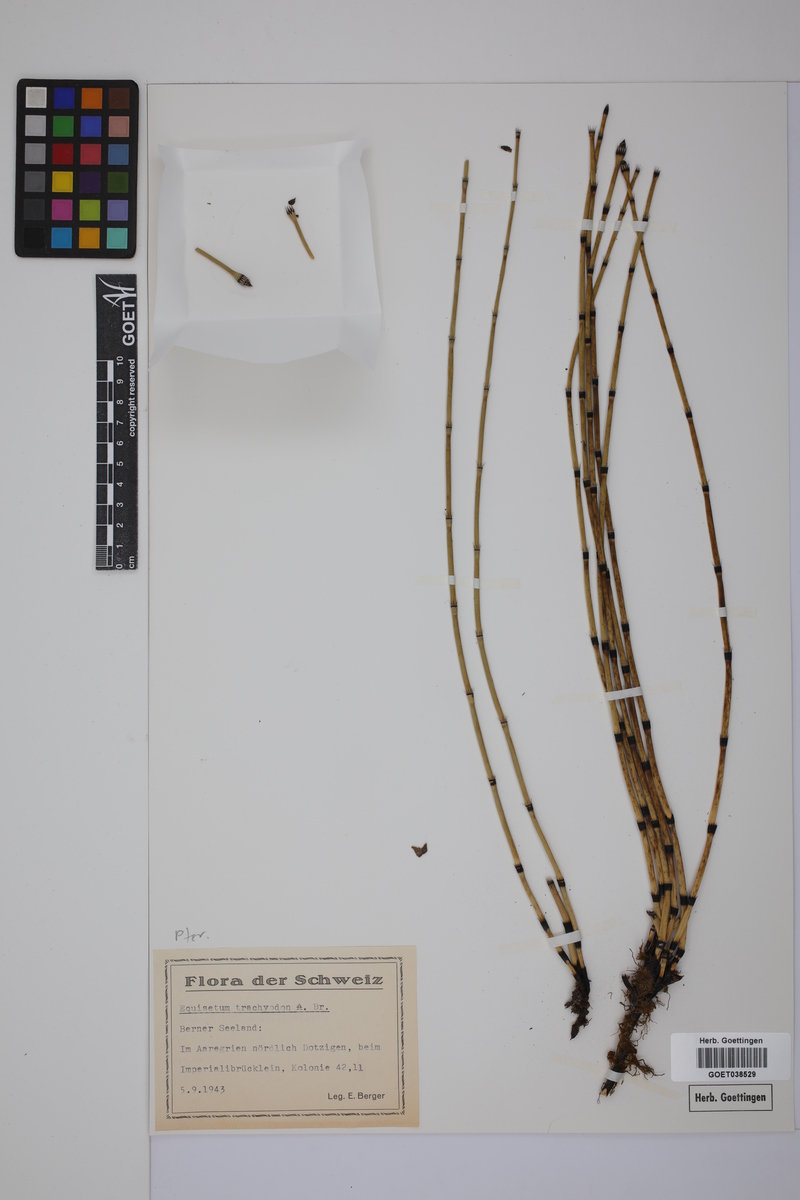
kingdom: Plantae
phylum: Tracheophyta
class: Polypodiopsida
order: Equisetales
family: Equisetaceae
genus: Equisetum
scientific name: Equisetum hyemale
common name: Rough horsetail
